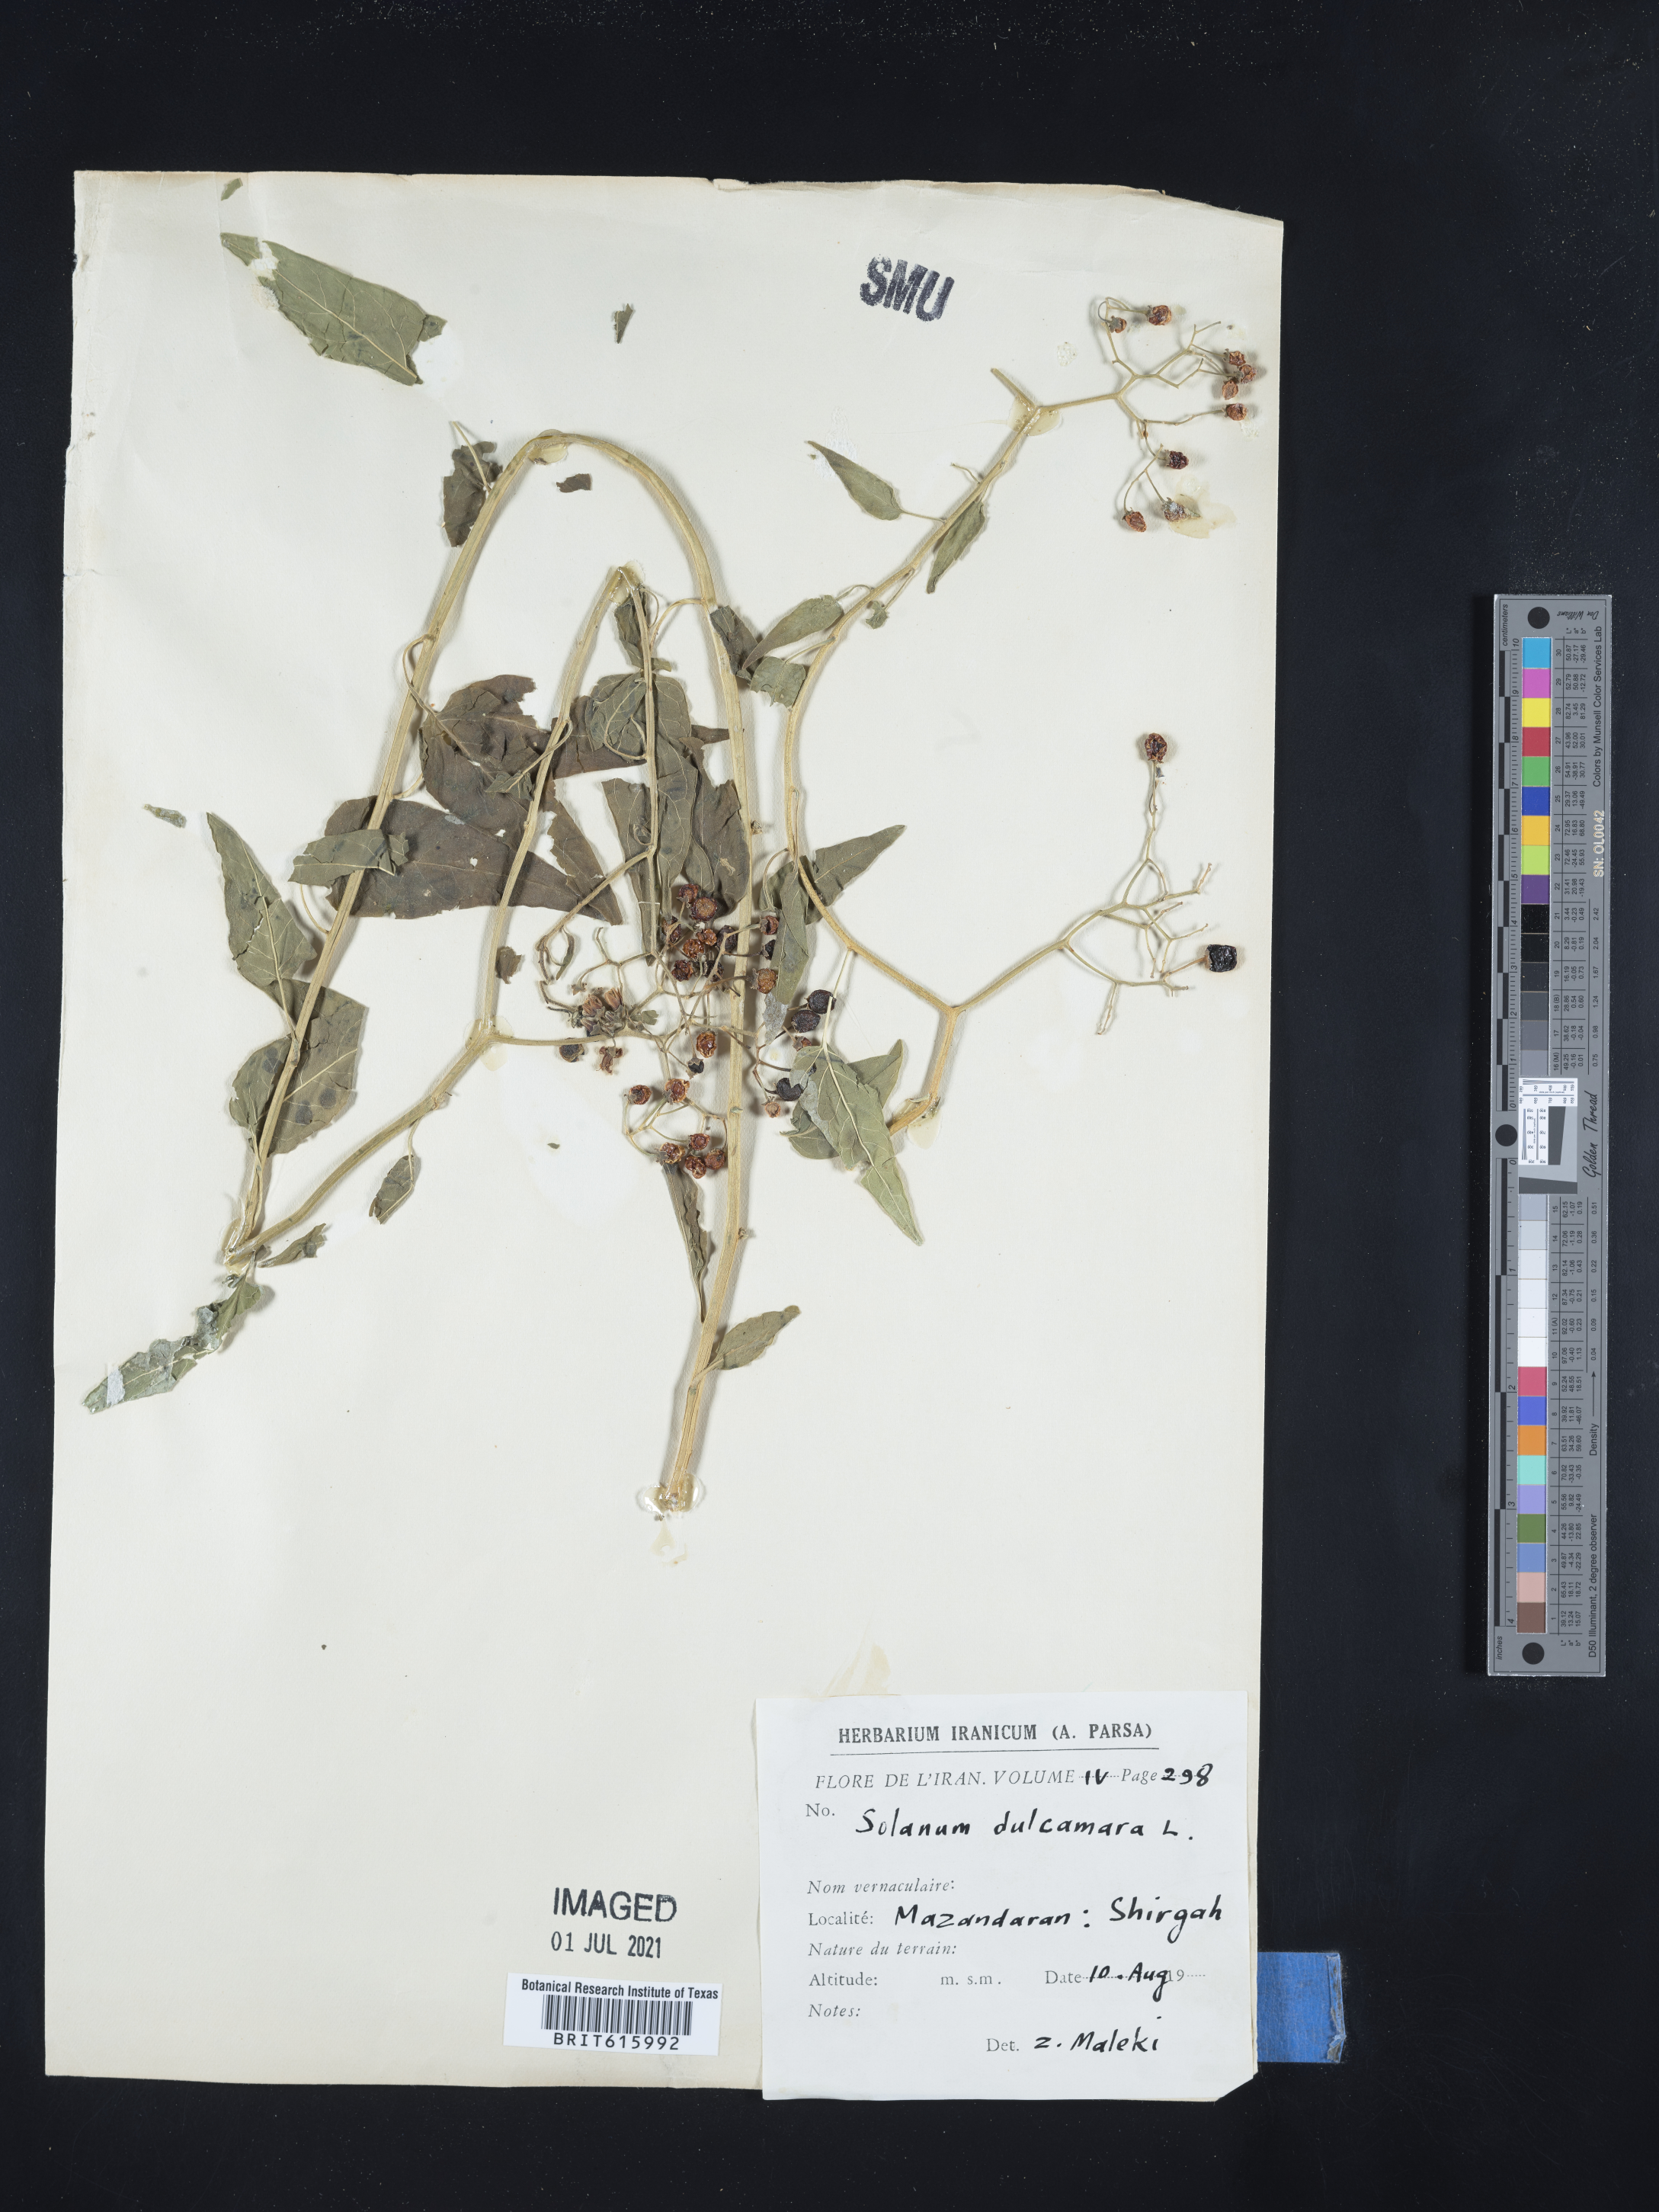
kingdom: Plantae
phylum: Tracheophyta
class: Magnoliopsida
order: Solanales
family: Solanaceae
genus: Solanum
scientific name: Solanum dulcamara
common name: Climbing nightshade
